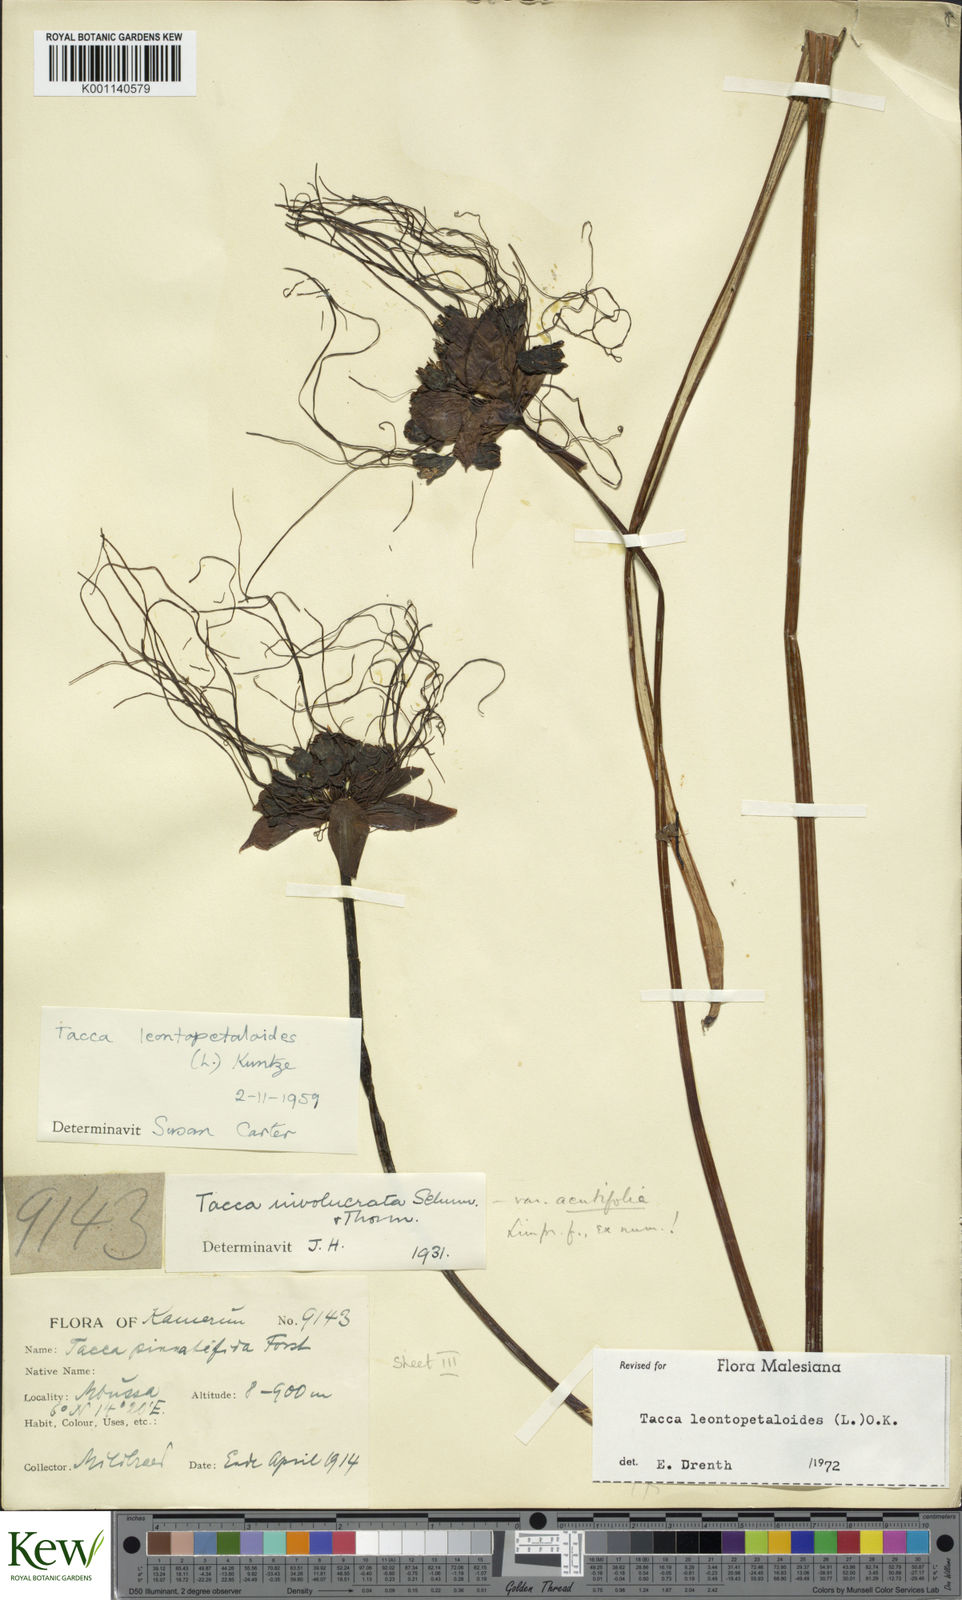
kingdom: Plantae
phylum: Tracheophyta
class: Liliopsida
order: Dioscoreales
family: Dioscoreaceae
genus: Tacca
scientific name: Tacca leontopetaloides
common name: Arrowroot
